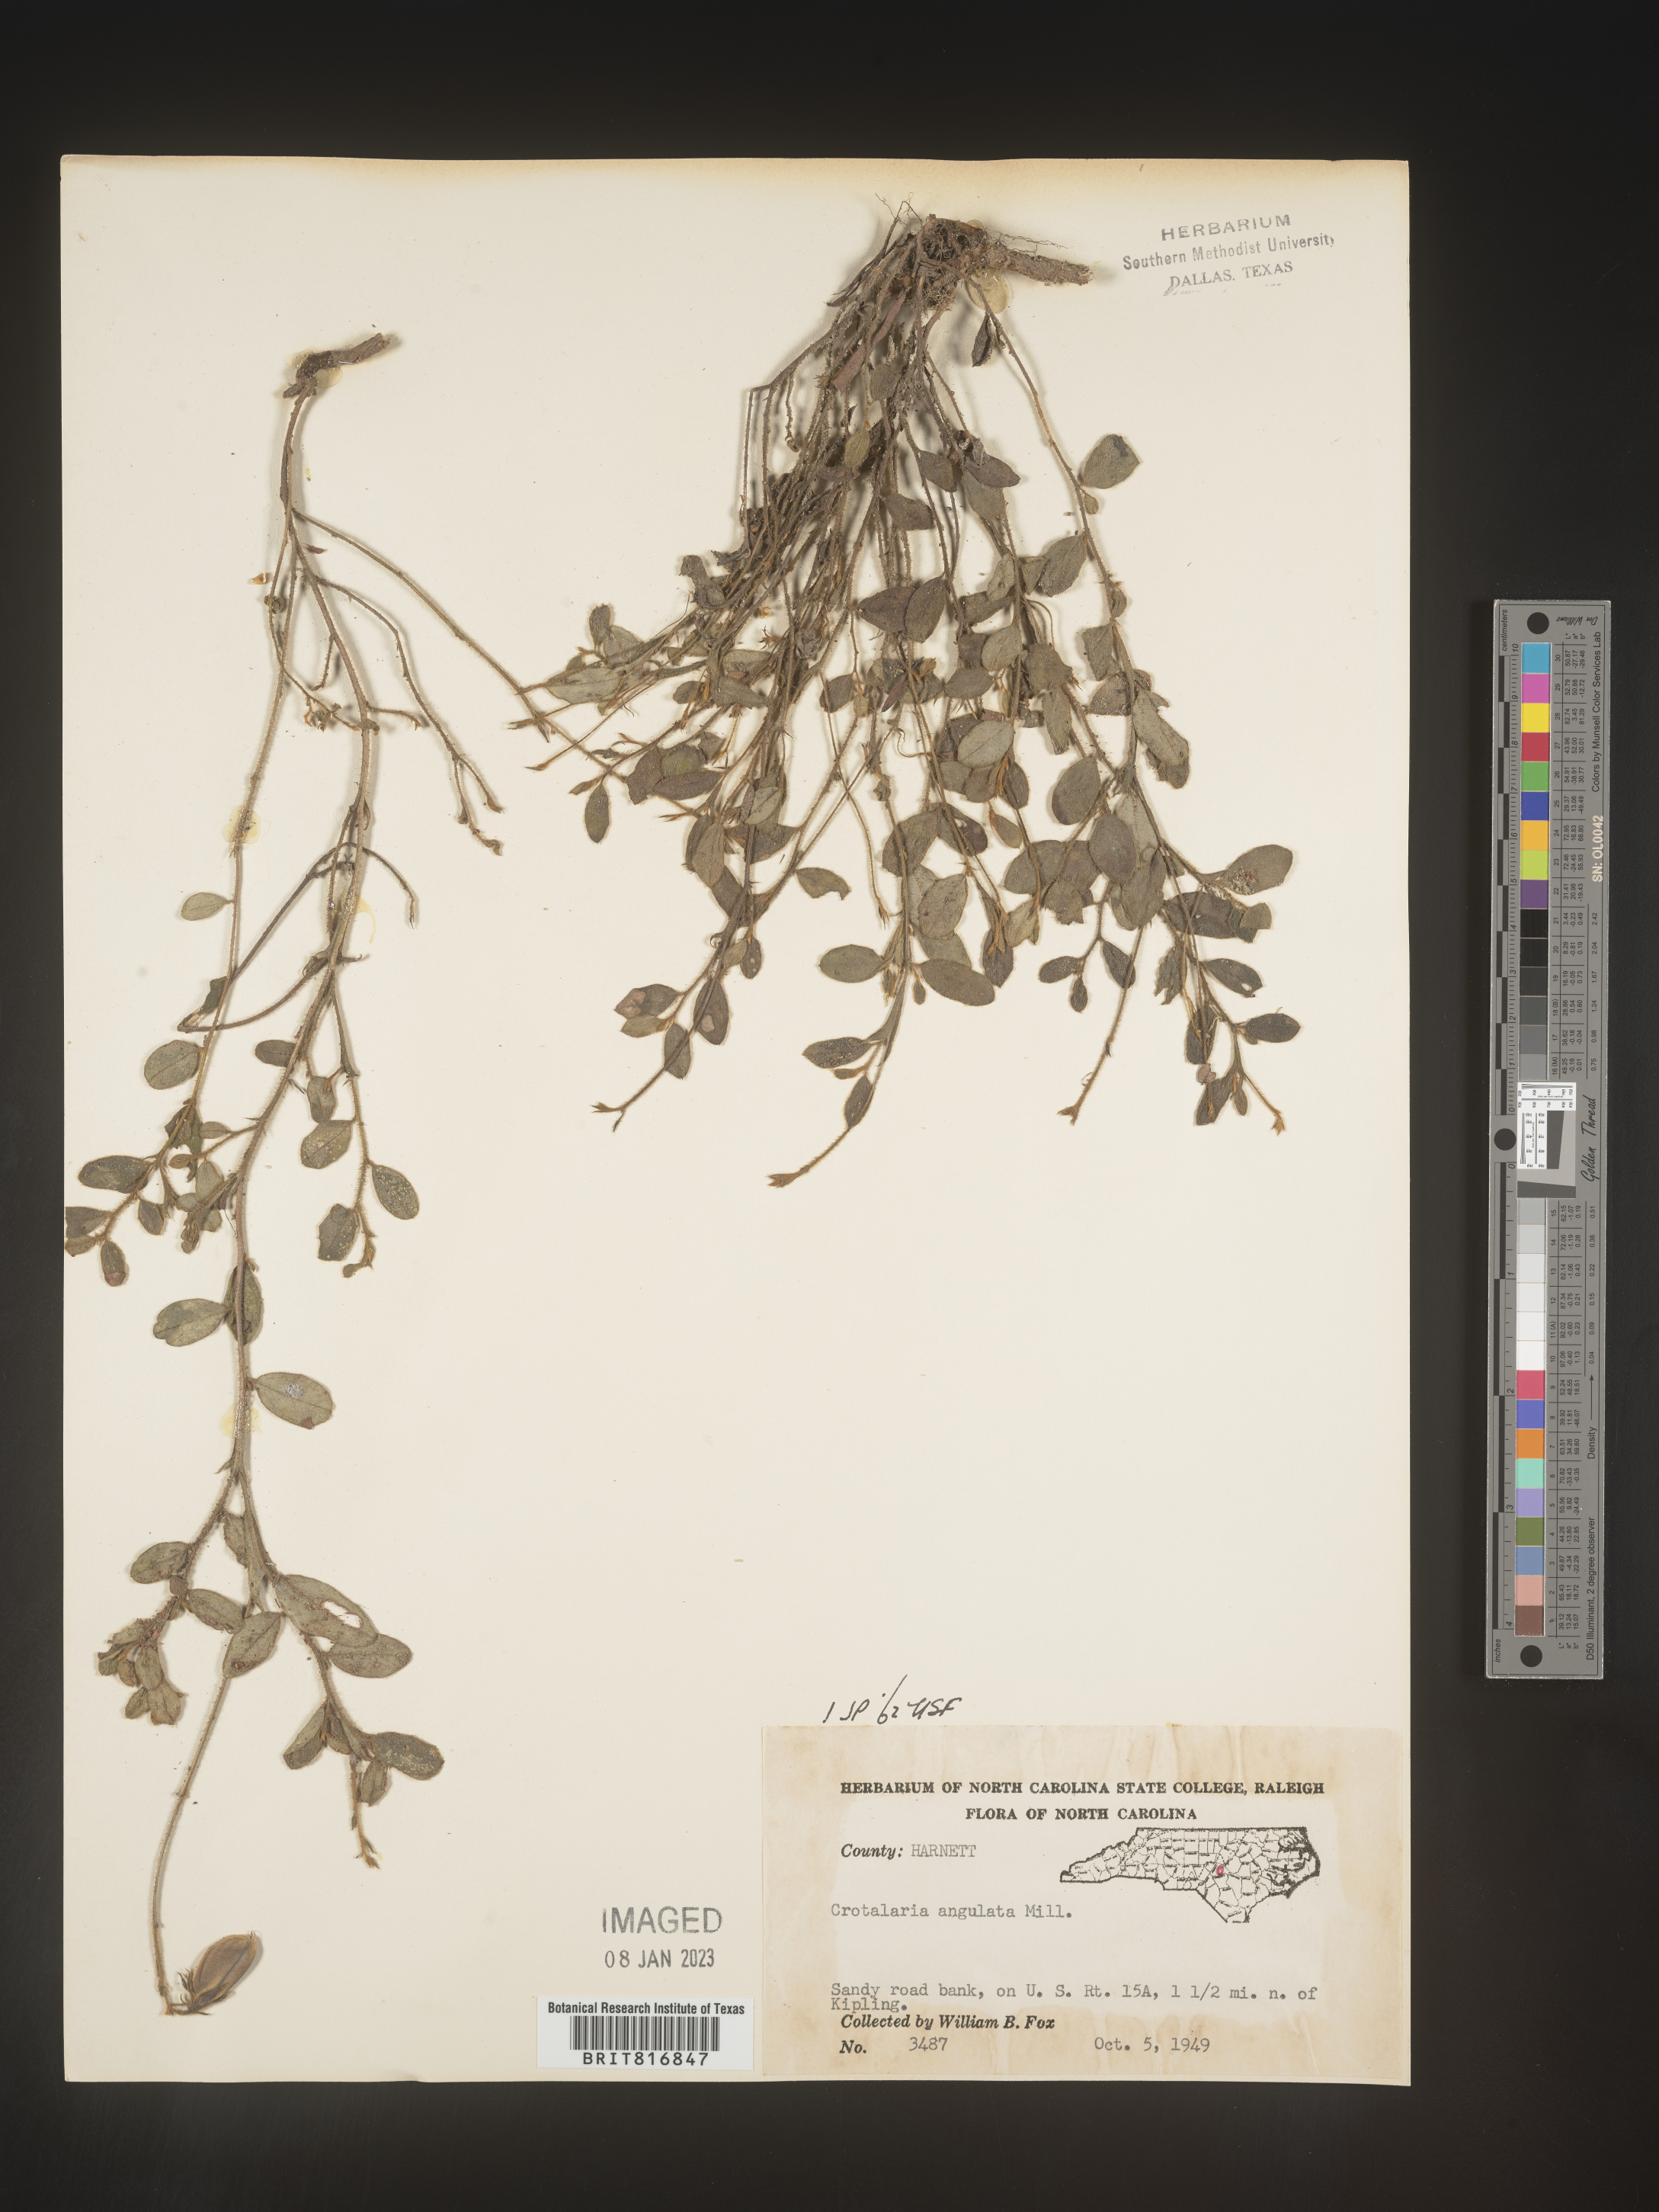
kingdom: Plantae
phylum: Tracheophyta
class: Magnoliopsida
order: Fabales
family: Fabaceae
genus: Crotalaria
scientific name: Crotalaria rotundifolia
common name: Prostrate rattlebox
